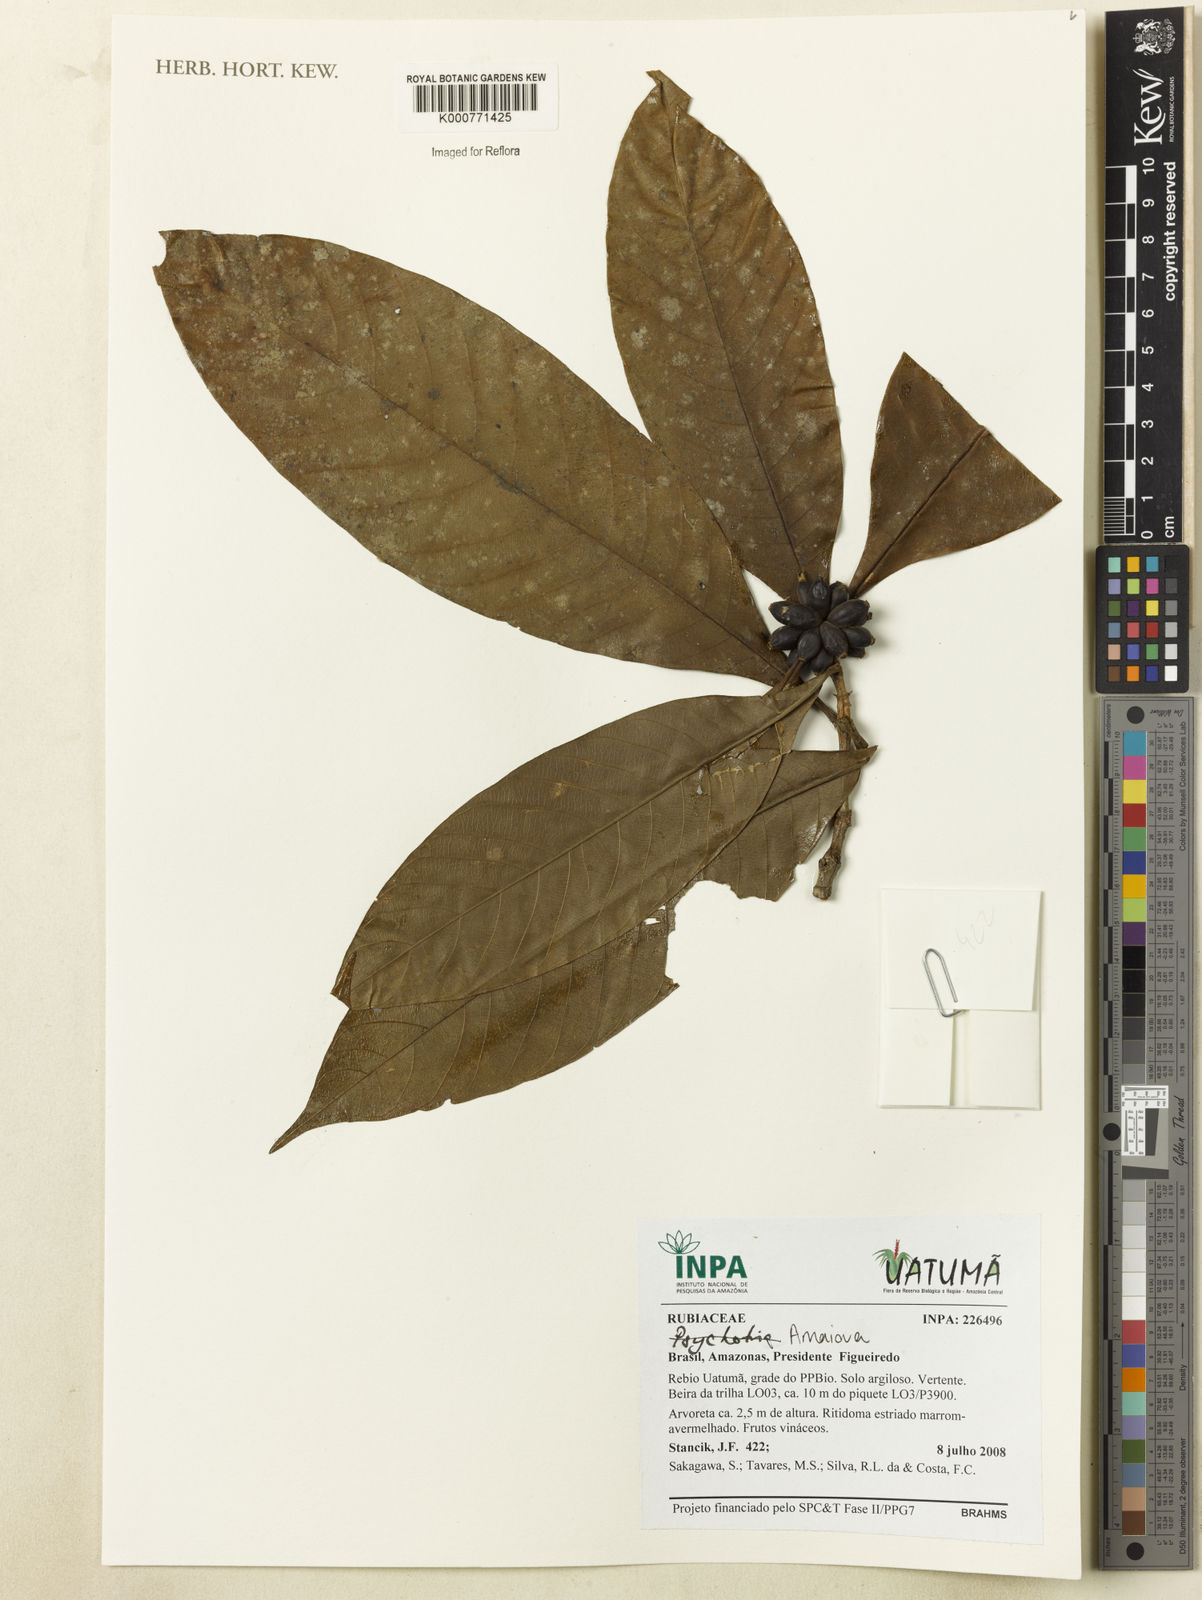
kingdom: Plantae
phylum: Tracheophyta
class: Magnoliopsida
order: Gentianales
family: Rubiaceae
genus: Psychotria
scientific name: Psychotria
